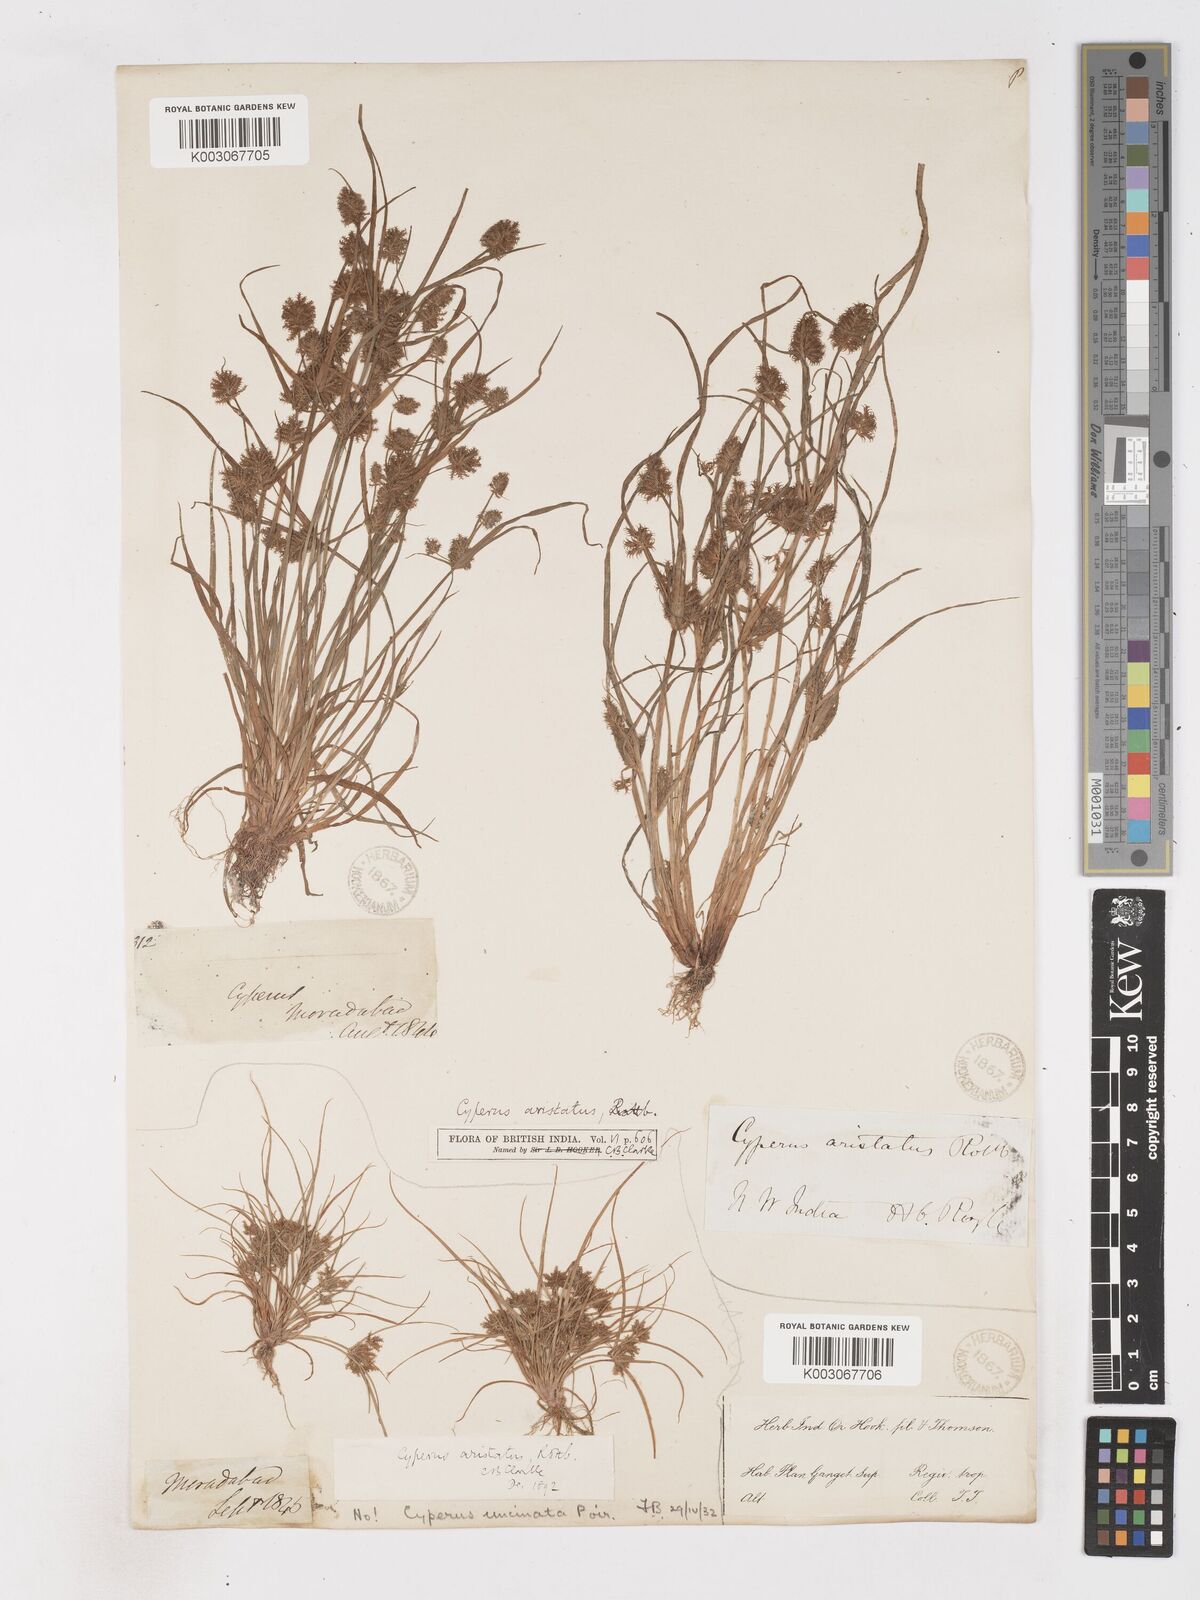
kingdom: Plantae
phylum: Tracheophyta
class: Liliopsida
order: Poales
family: Cyperaceae
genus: Cyperus
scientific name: Cyperus squarrosus
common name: Awned cyperus
